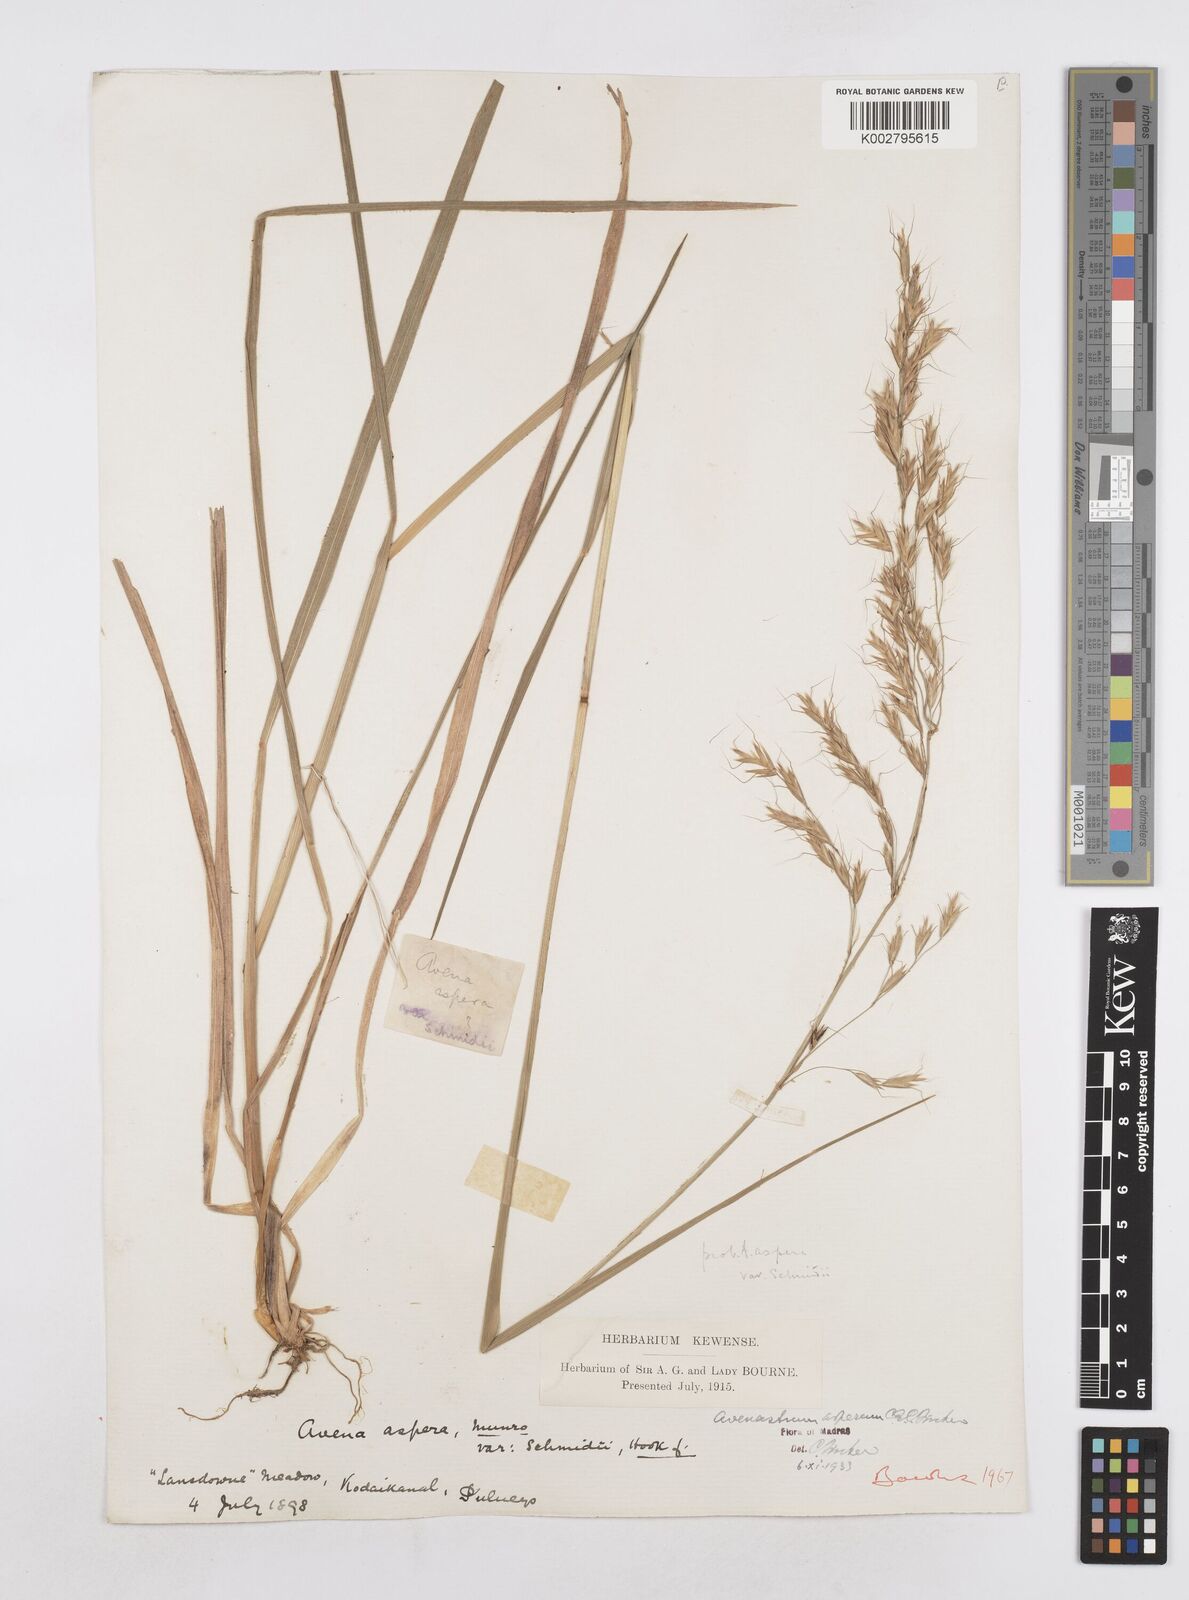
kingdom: Plantae
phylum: Tracheophyta
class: Liliopsida
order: Poales
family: Poaceae
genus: Helictotrichon
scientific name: Helictotrichon
